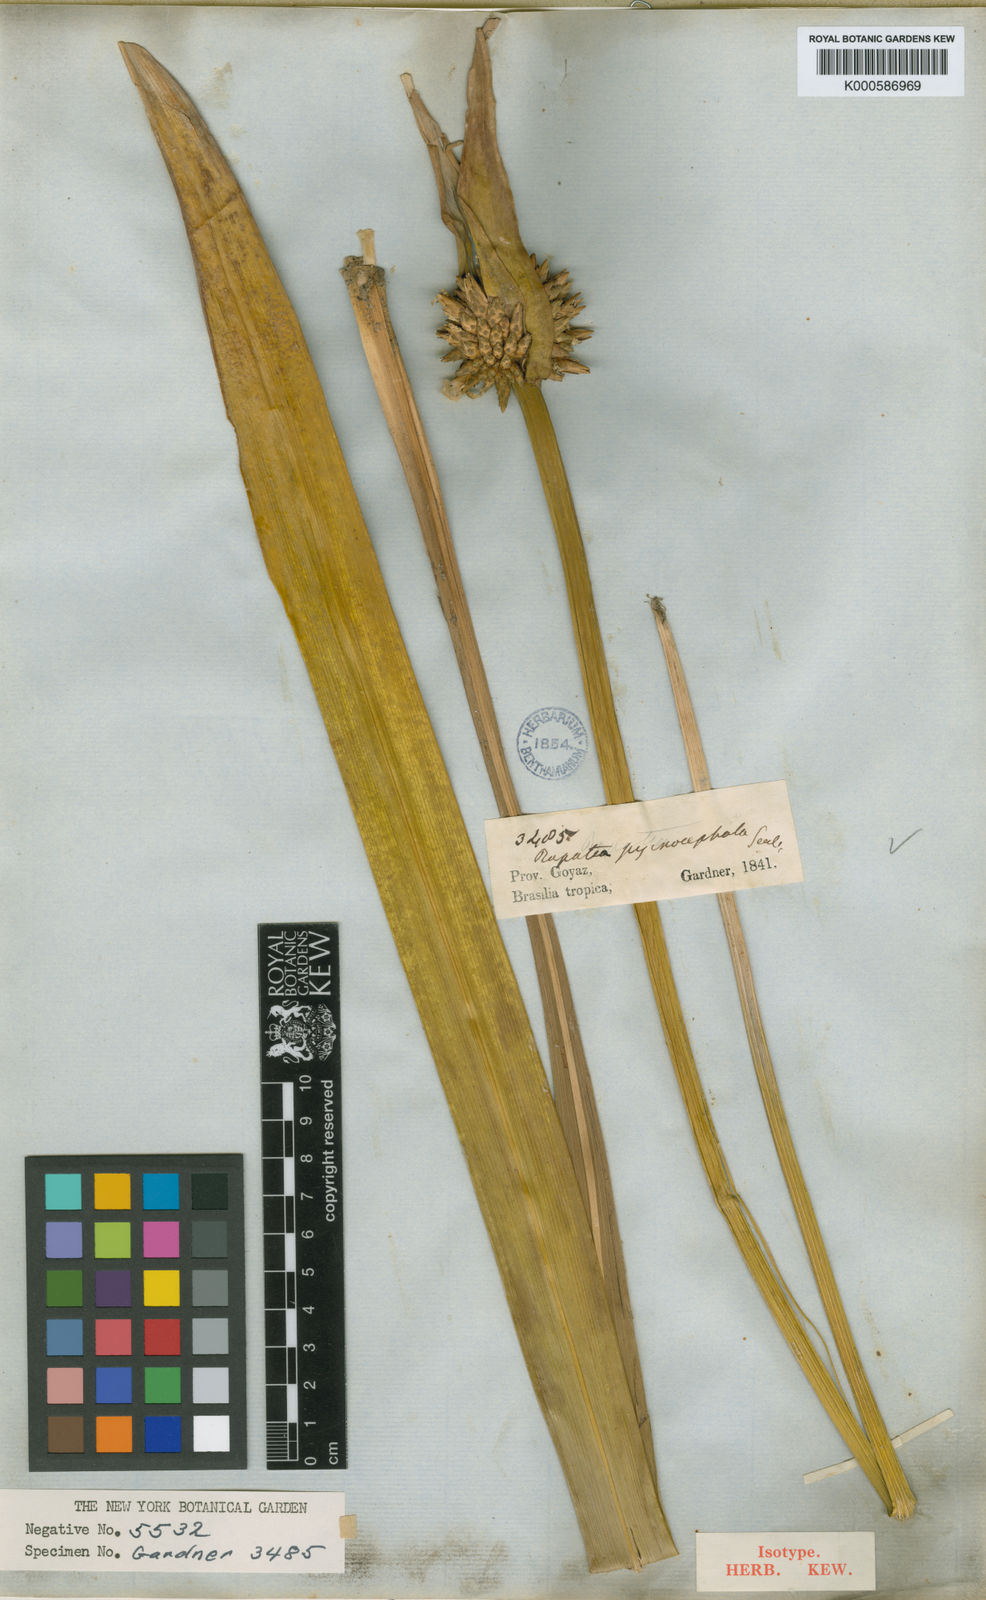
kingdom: Plantae
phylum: Tracheophyta
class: Liliopsida
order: Poales
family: Rapateaceae
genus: Rapatea
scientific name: Rapatea pycnocephala
